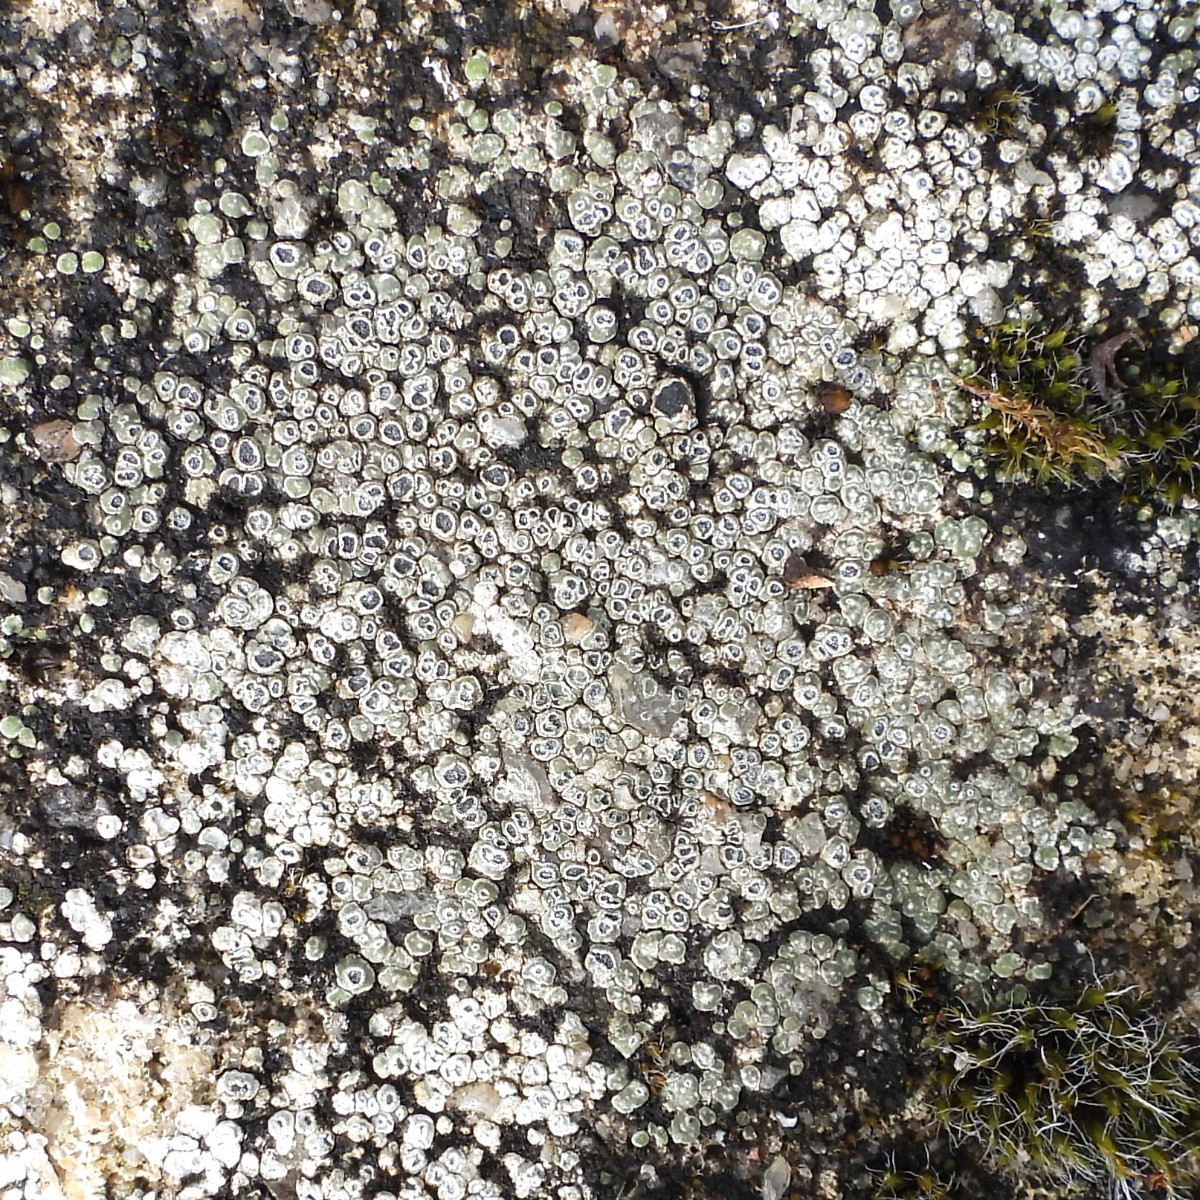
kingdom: Fungi
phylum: Ascomycota
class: Lecanoromycetes
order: Pertusariales
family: Megasporaceae
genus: Circinaria
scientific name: Circinaria contorta
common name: indviklet hulskivelav
